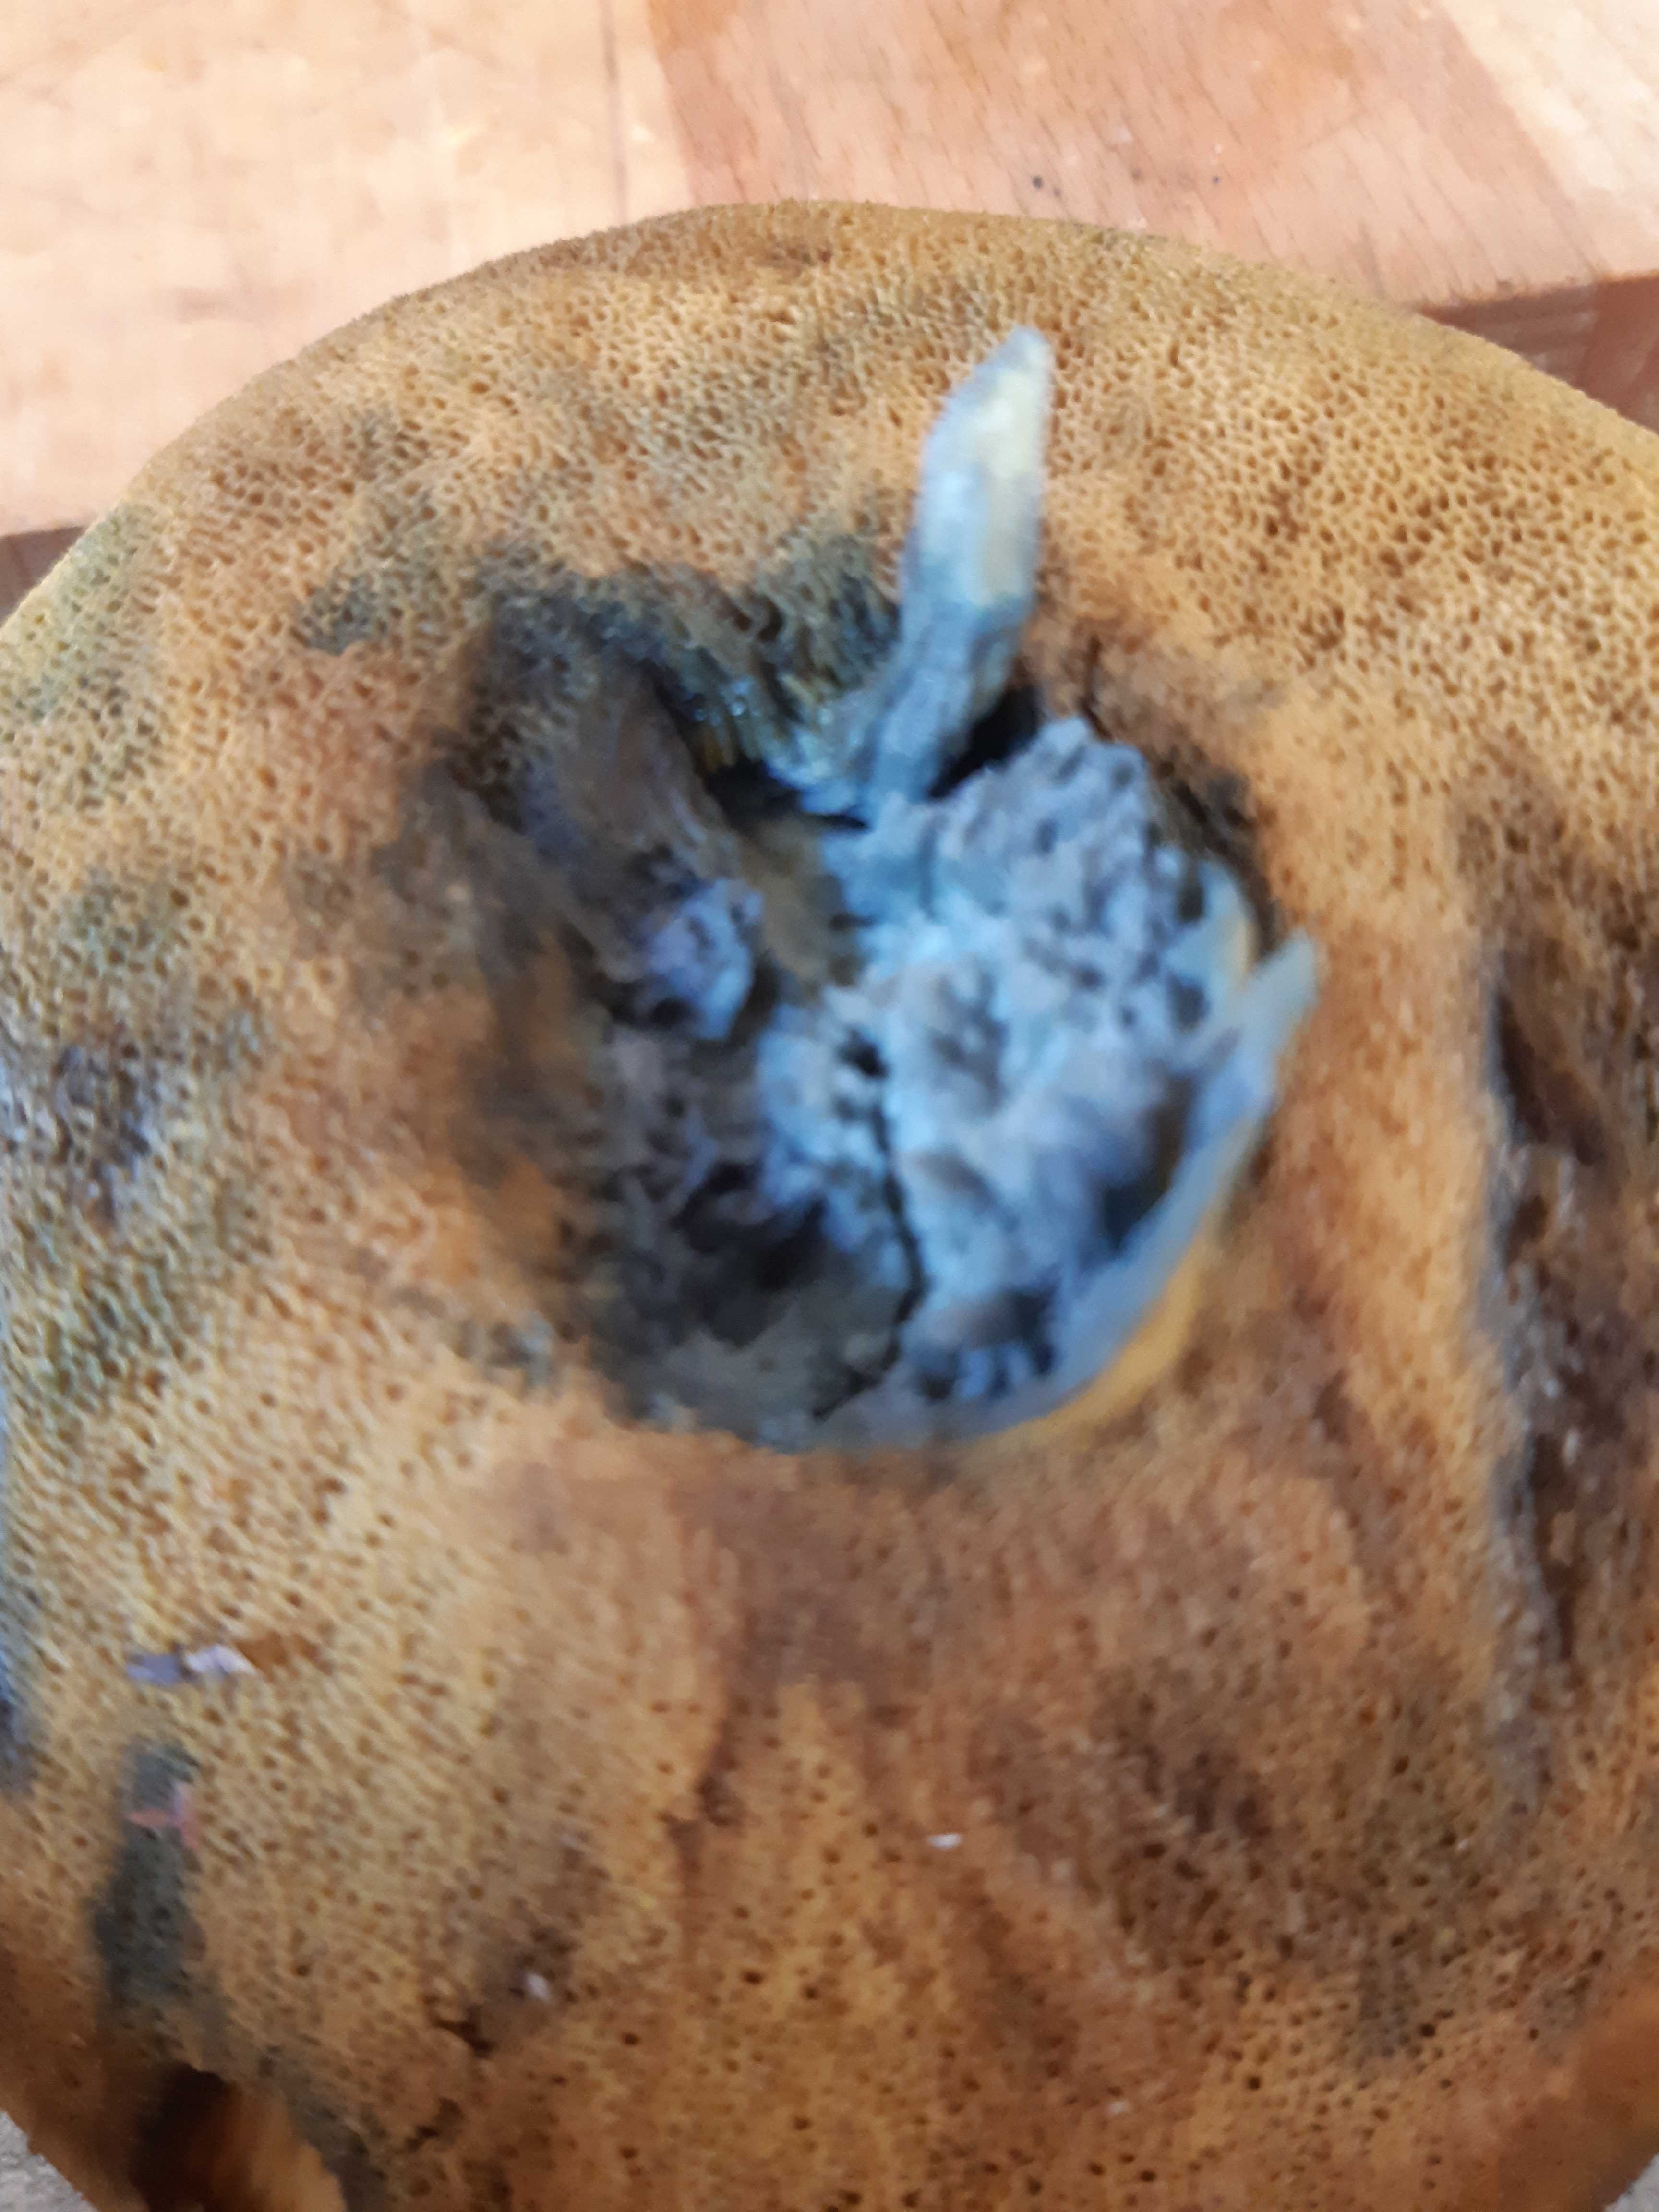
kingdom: Fungi
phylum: Basidiomycota
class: Agaricomycetes
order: Boletales
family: Suillaceae
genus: Suillus
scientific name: Suillus variegatus
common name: broget slimrørhat
